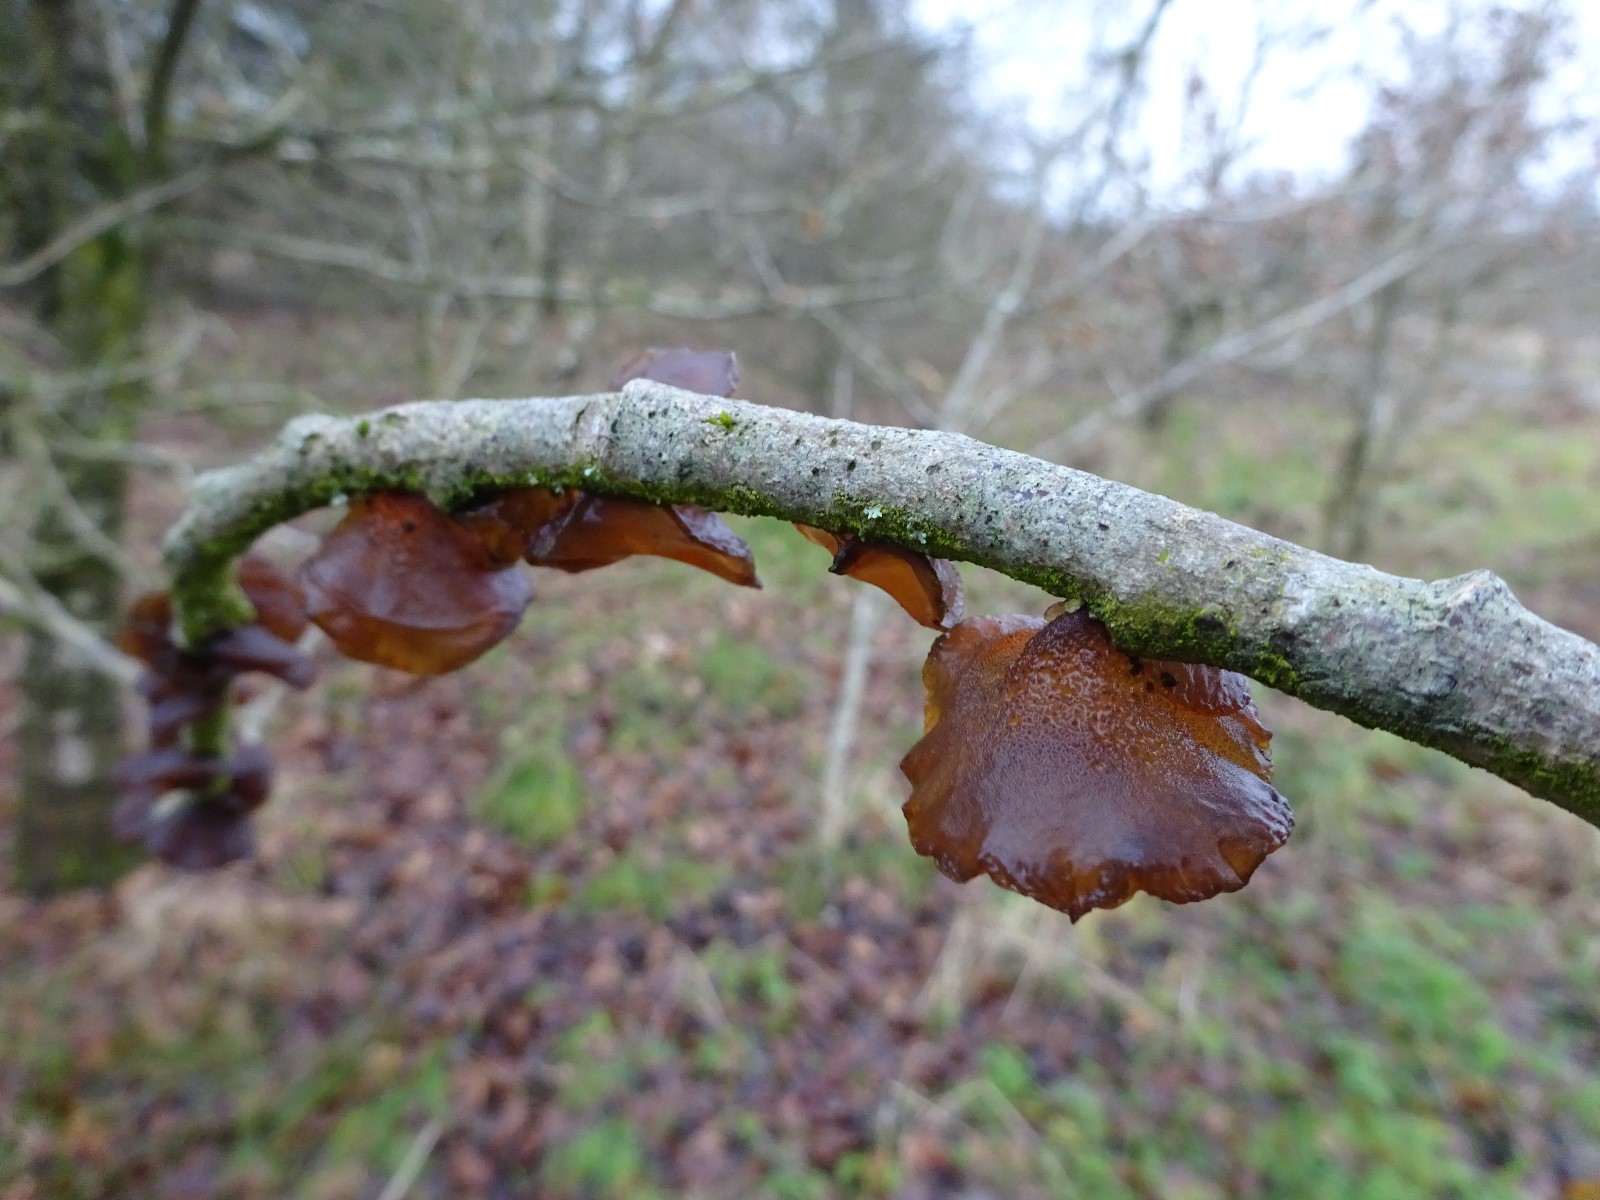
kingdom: Fungi
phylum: Basidiomycota
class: Agaricomycetes
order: Auriculariales
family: Auriculariaceae
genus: Exidia
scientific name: Exidia recisa
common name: pile-bævretop
